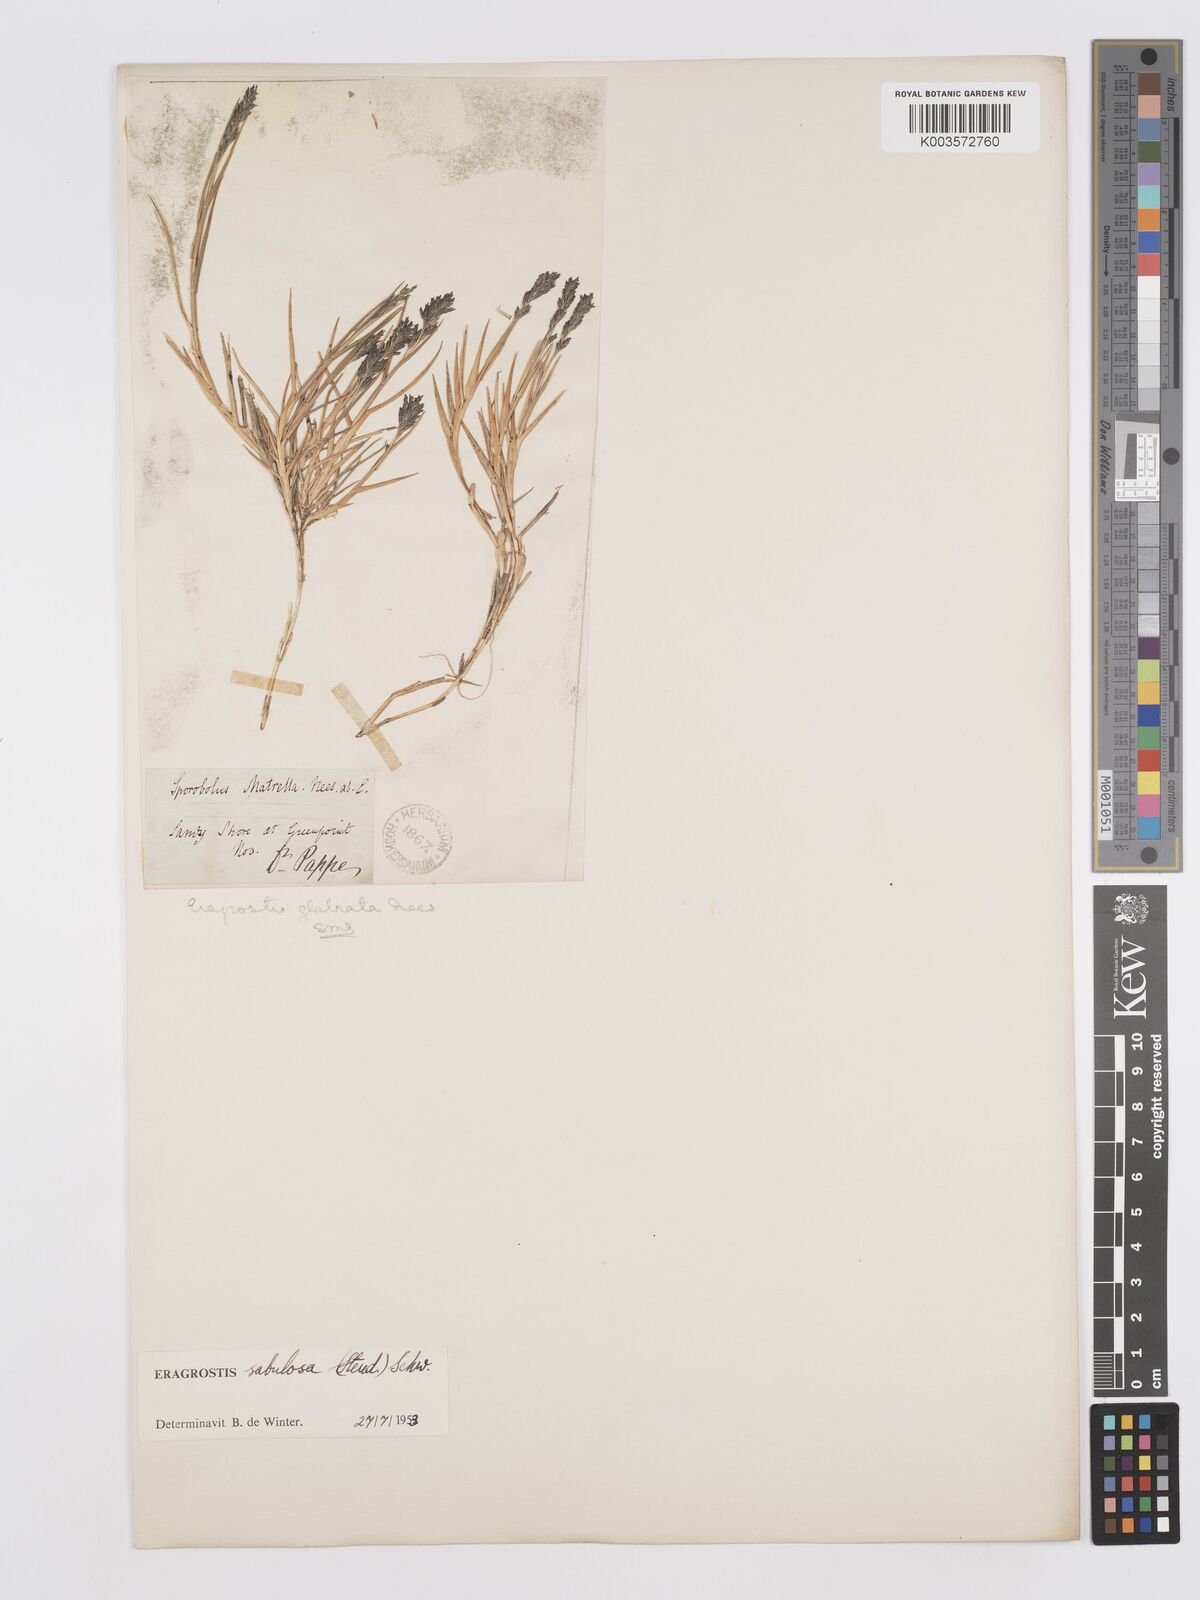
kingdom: Plantae
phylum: Tracheophyta
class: Liliopsida
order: Poales
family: Poaceae
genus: Eragrostis
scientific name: Eragrostis sabulosa
